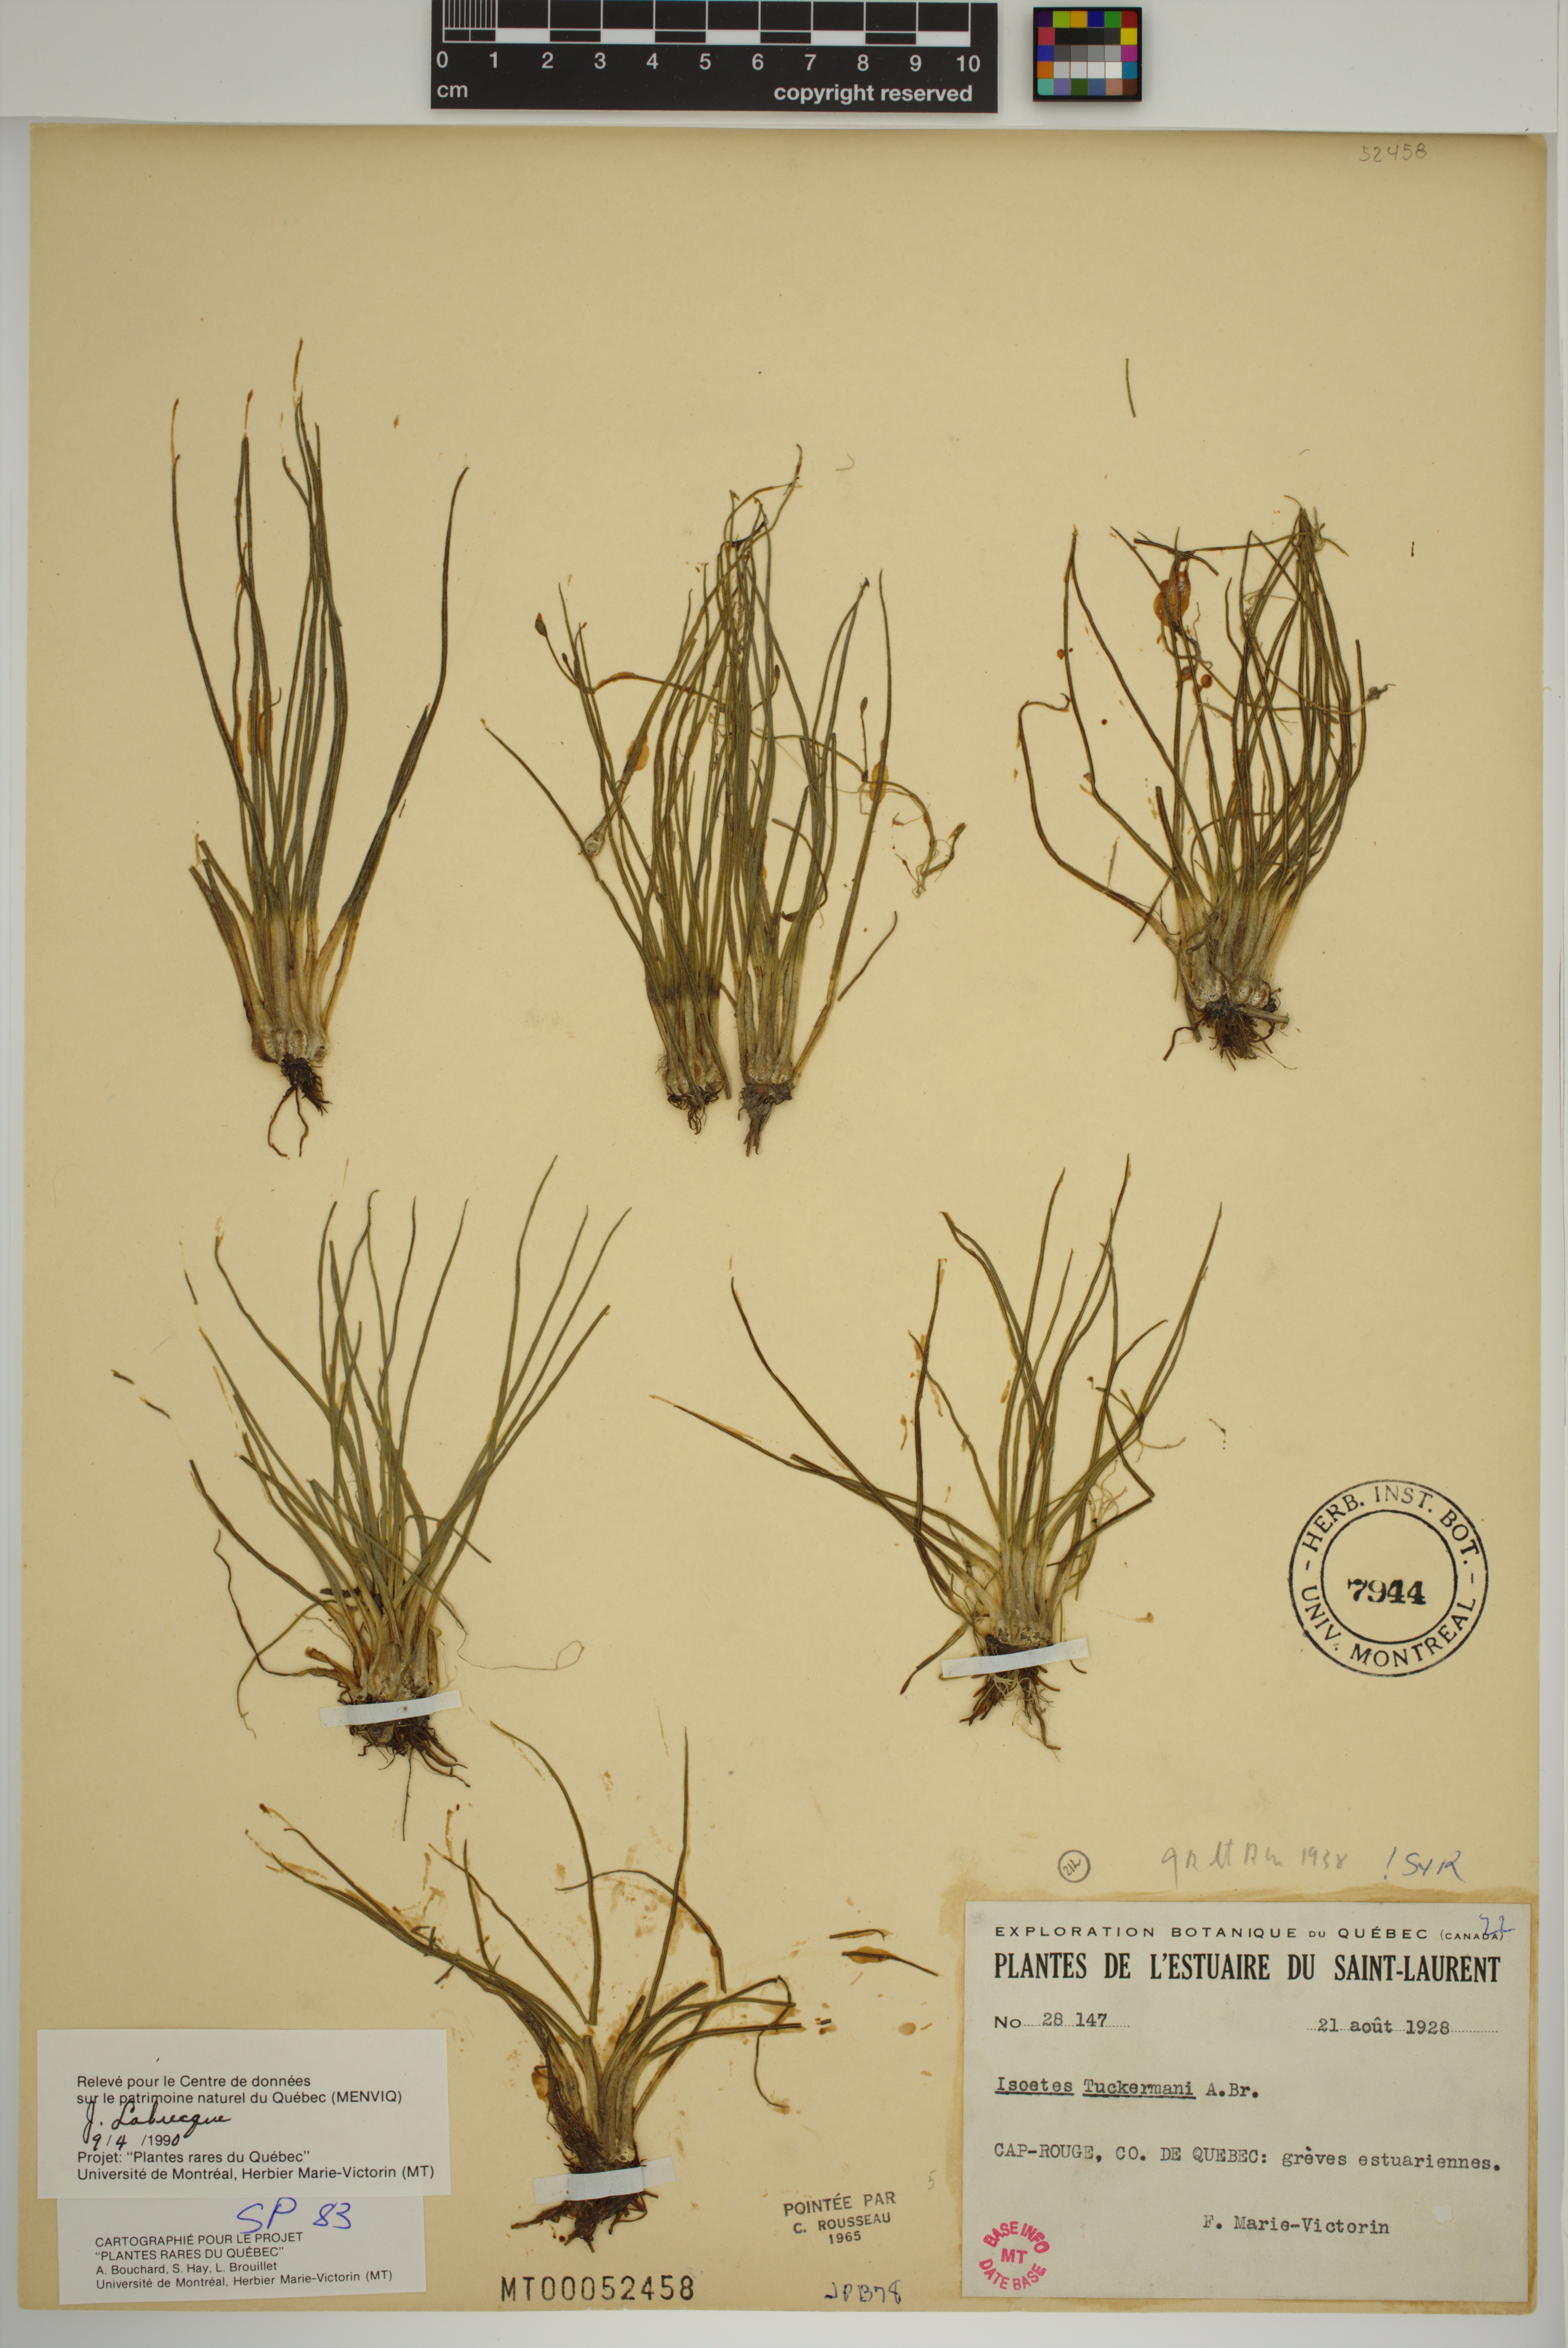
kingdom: Plantae
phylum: Tracheophyta
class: Lycopodiopsida
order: Isoetales
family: Isoetaceae
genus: Isoetes
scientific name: Isoetes laurentiana
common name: St. lawrence quillwort
